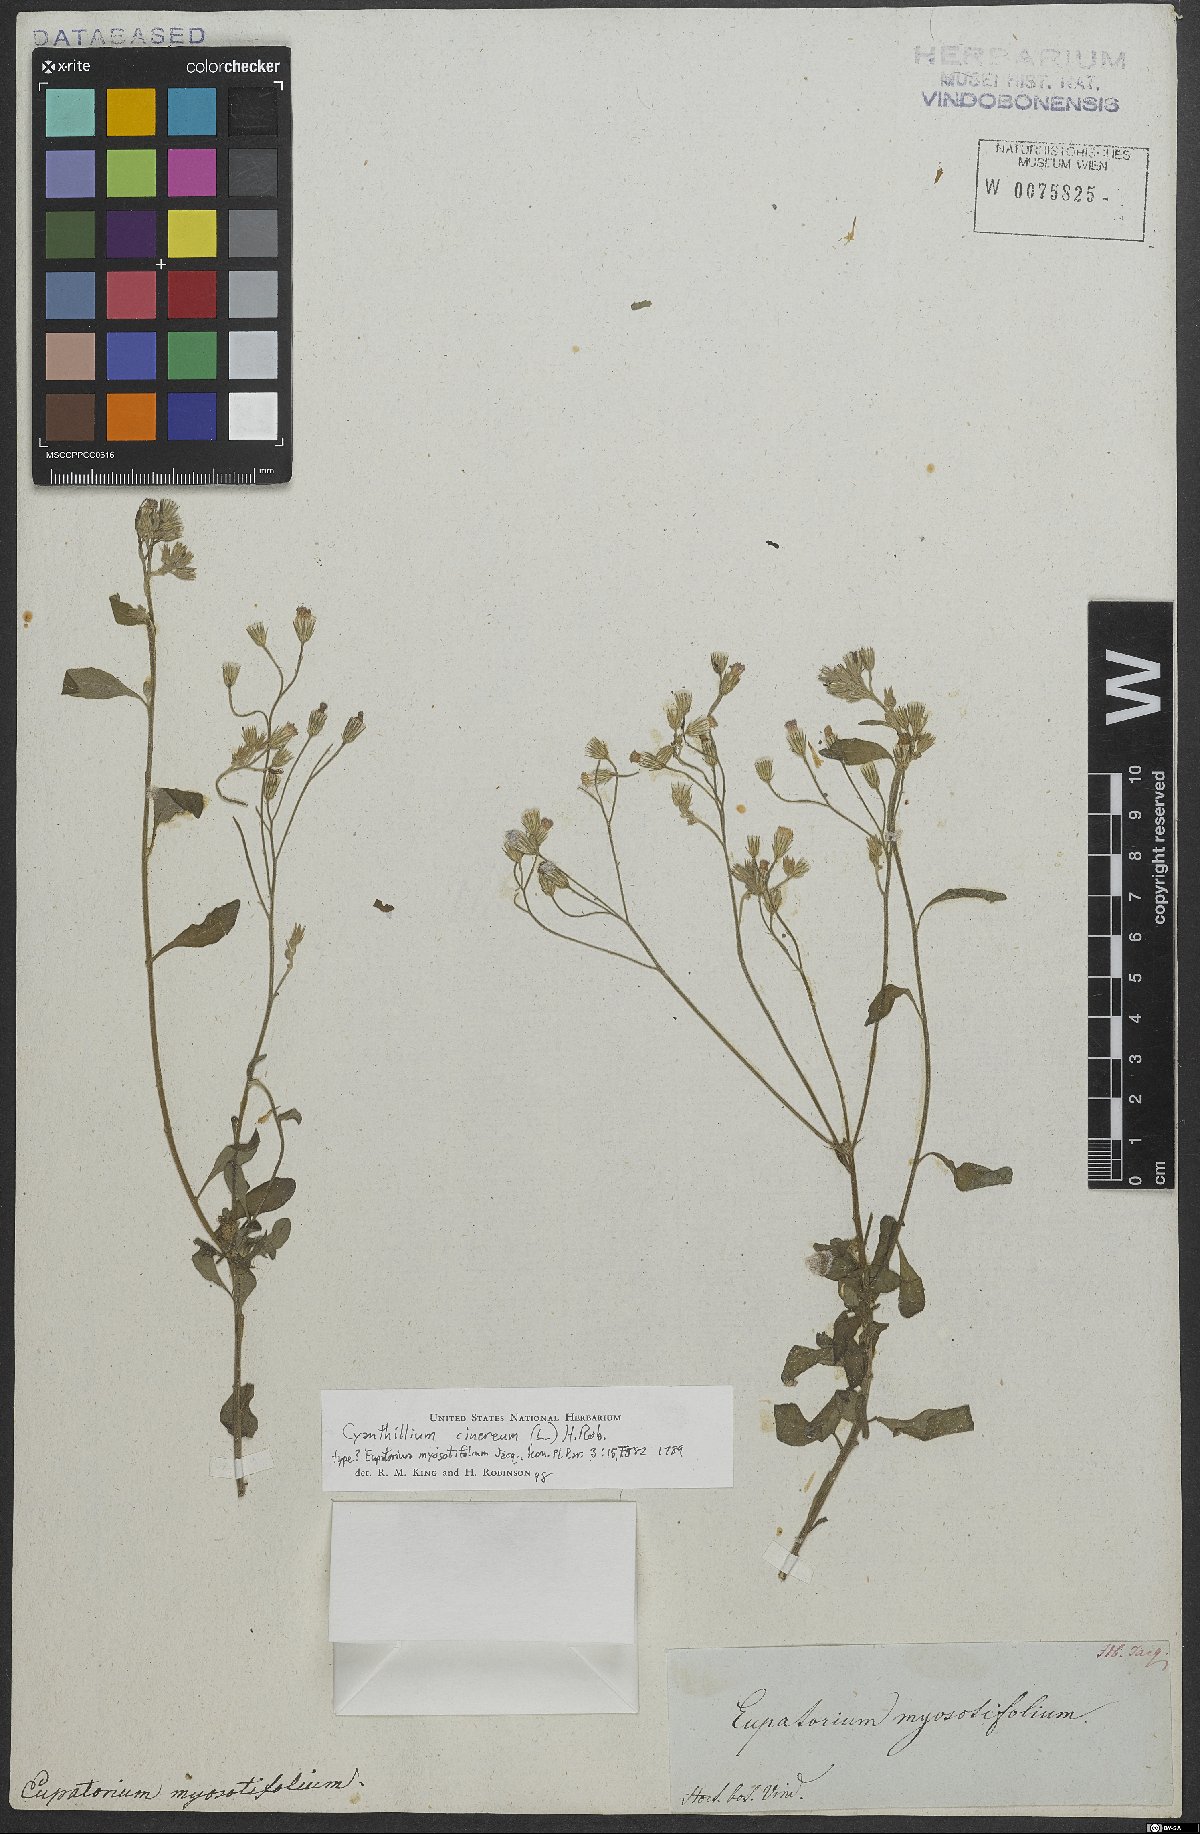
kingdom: Plantae
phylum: Tracheophyta
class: Magnoliopsida
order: Asterales
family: Asteraceae
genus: Cyanthillium
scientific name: Cyanthillium cinereum
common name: Little ironweed
